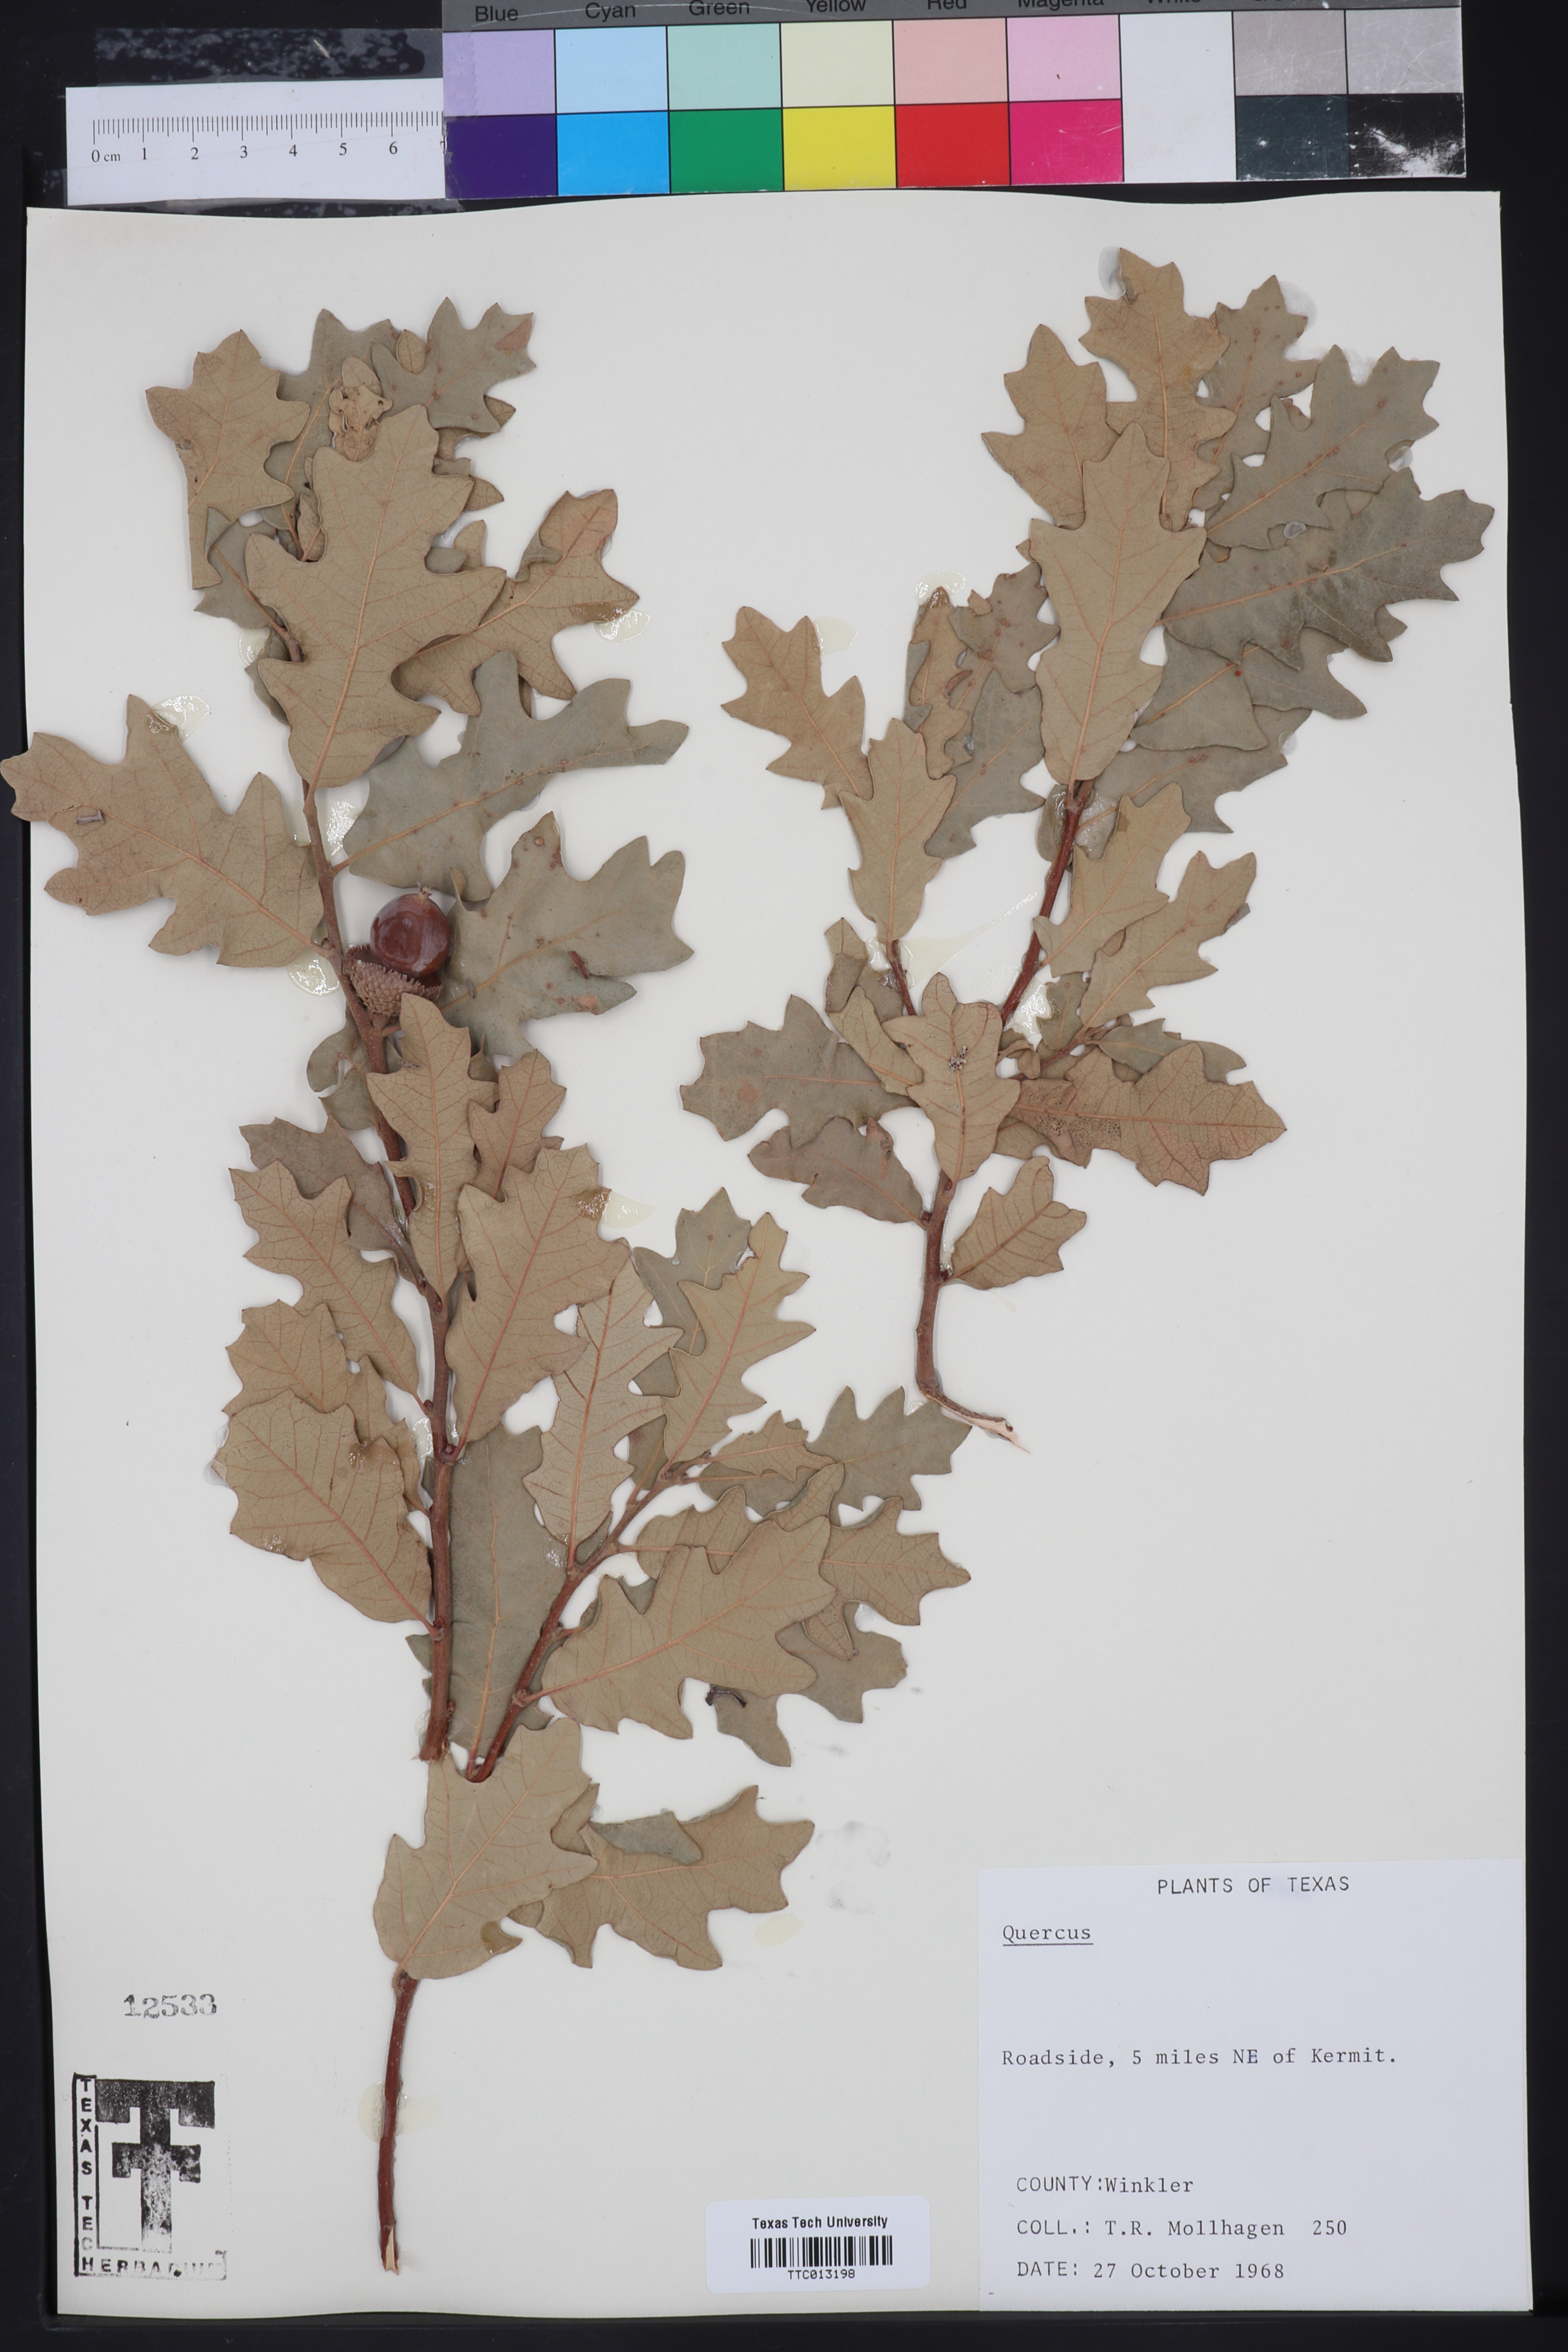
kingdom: Plantae
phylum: Tracheophyta
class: Magnoliopsida
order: Fagales
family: Fagaceae
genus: Quercus
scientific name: Quercus
